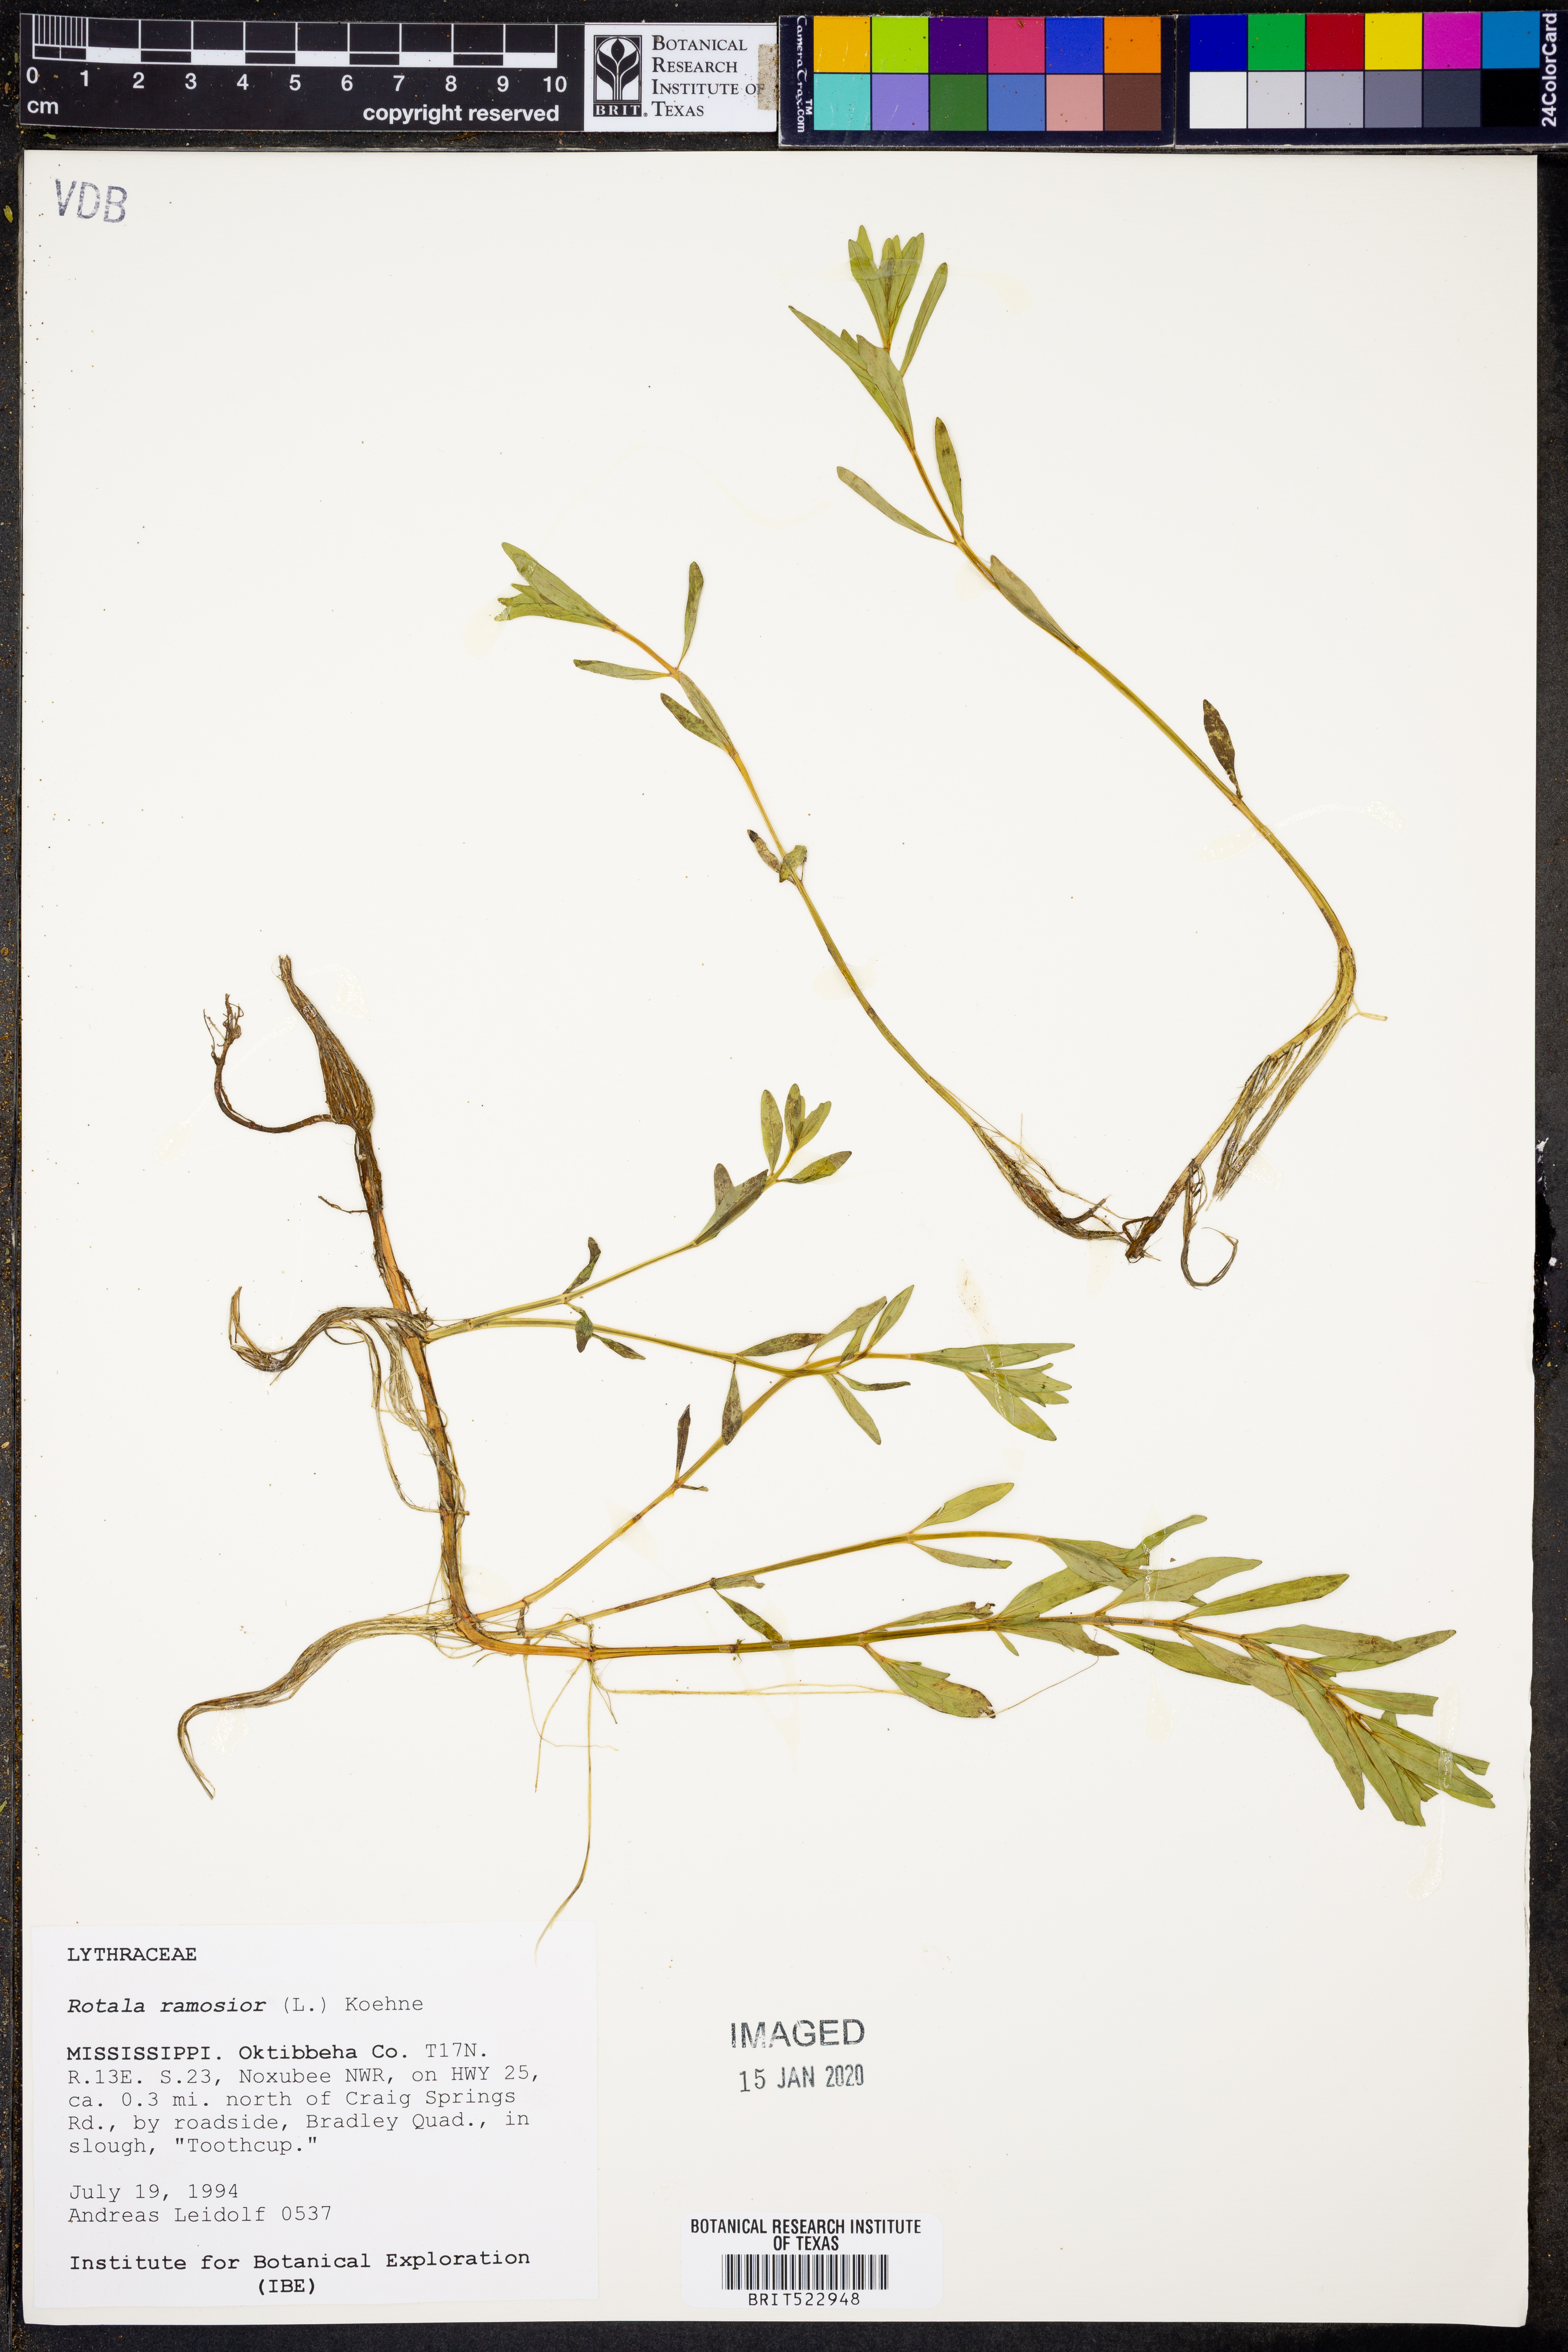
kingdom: Plantae
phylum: Tracheophyta
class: Magnoliopsida
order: Myrtales
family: Lythraceae
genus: Rotala
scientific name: Rotala ramosior
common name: Lowland rotala
